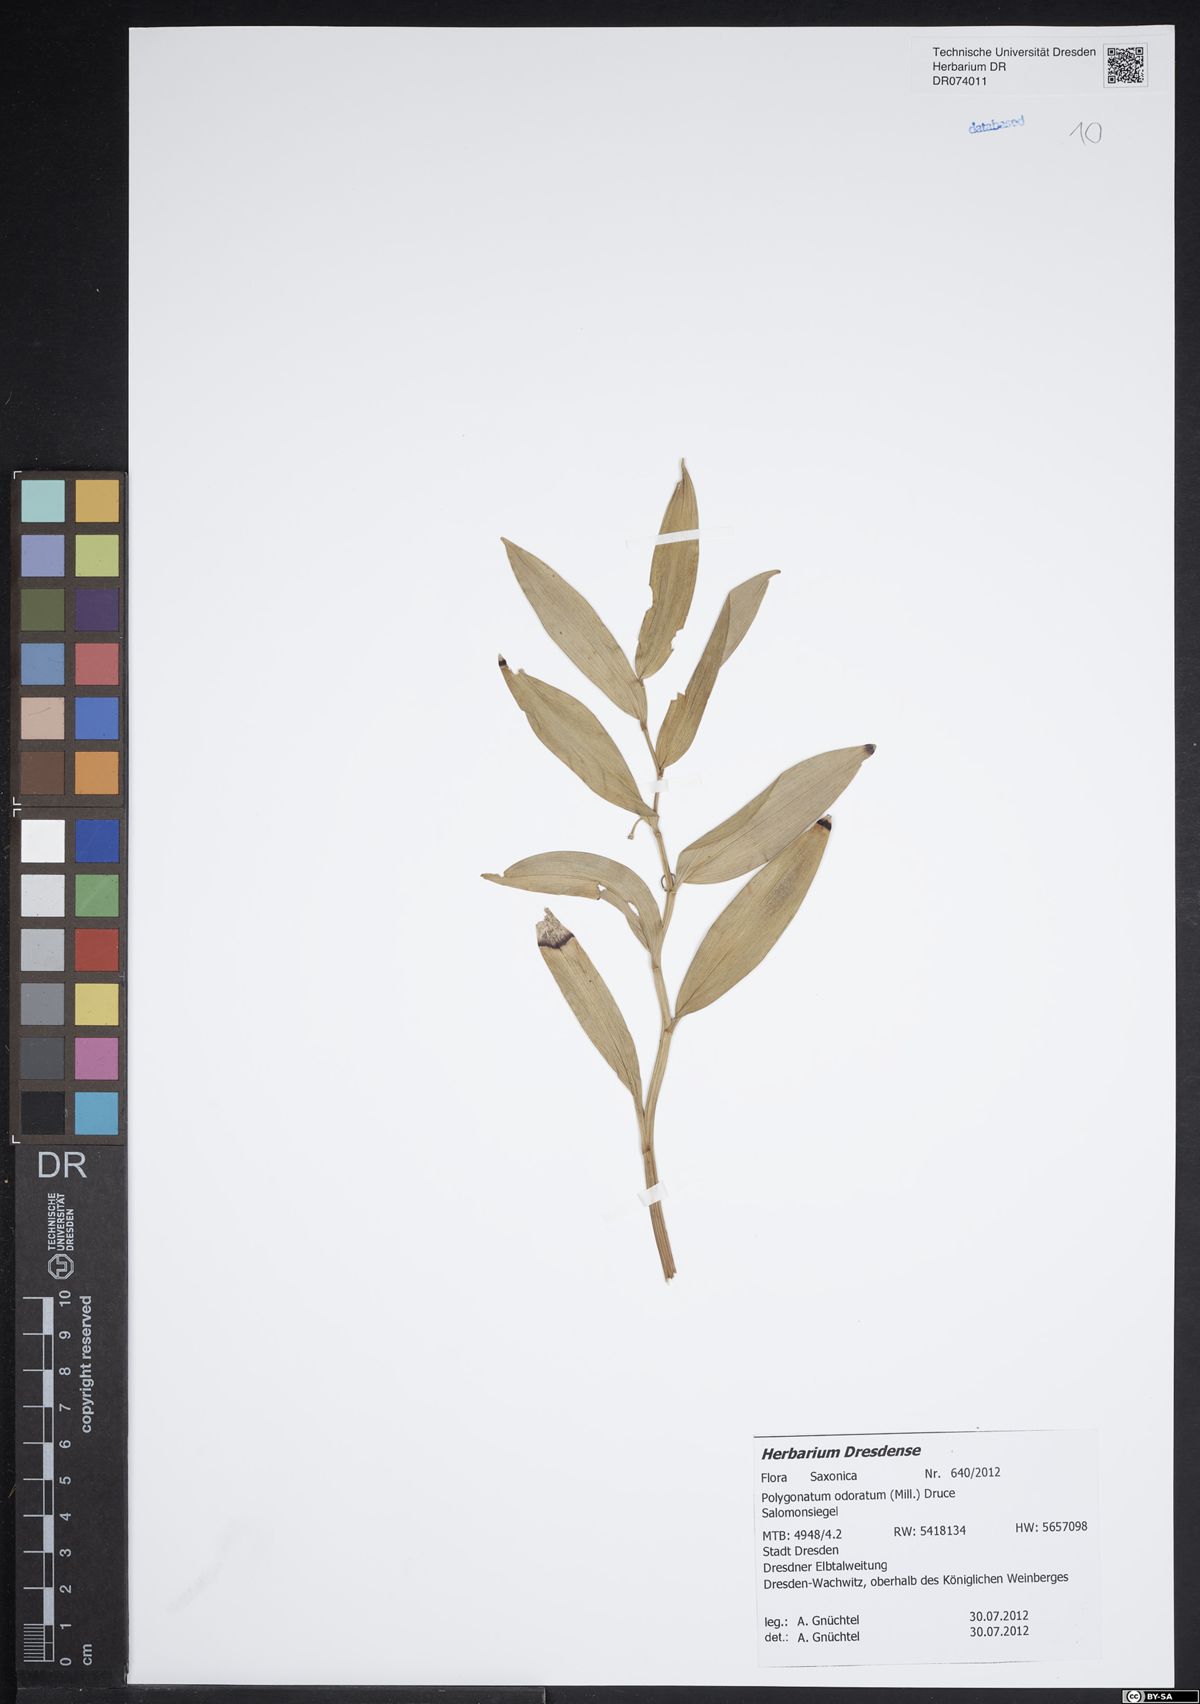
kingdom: Plantae
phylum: Tracheophyta
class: Liliopsida
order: Asparagales
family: Asparagaceae
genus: Polygonatum
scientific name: Polygonatum odoratum
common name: Angular solomon's-seal
